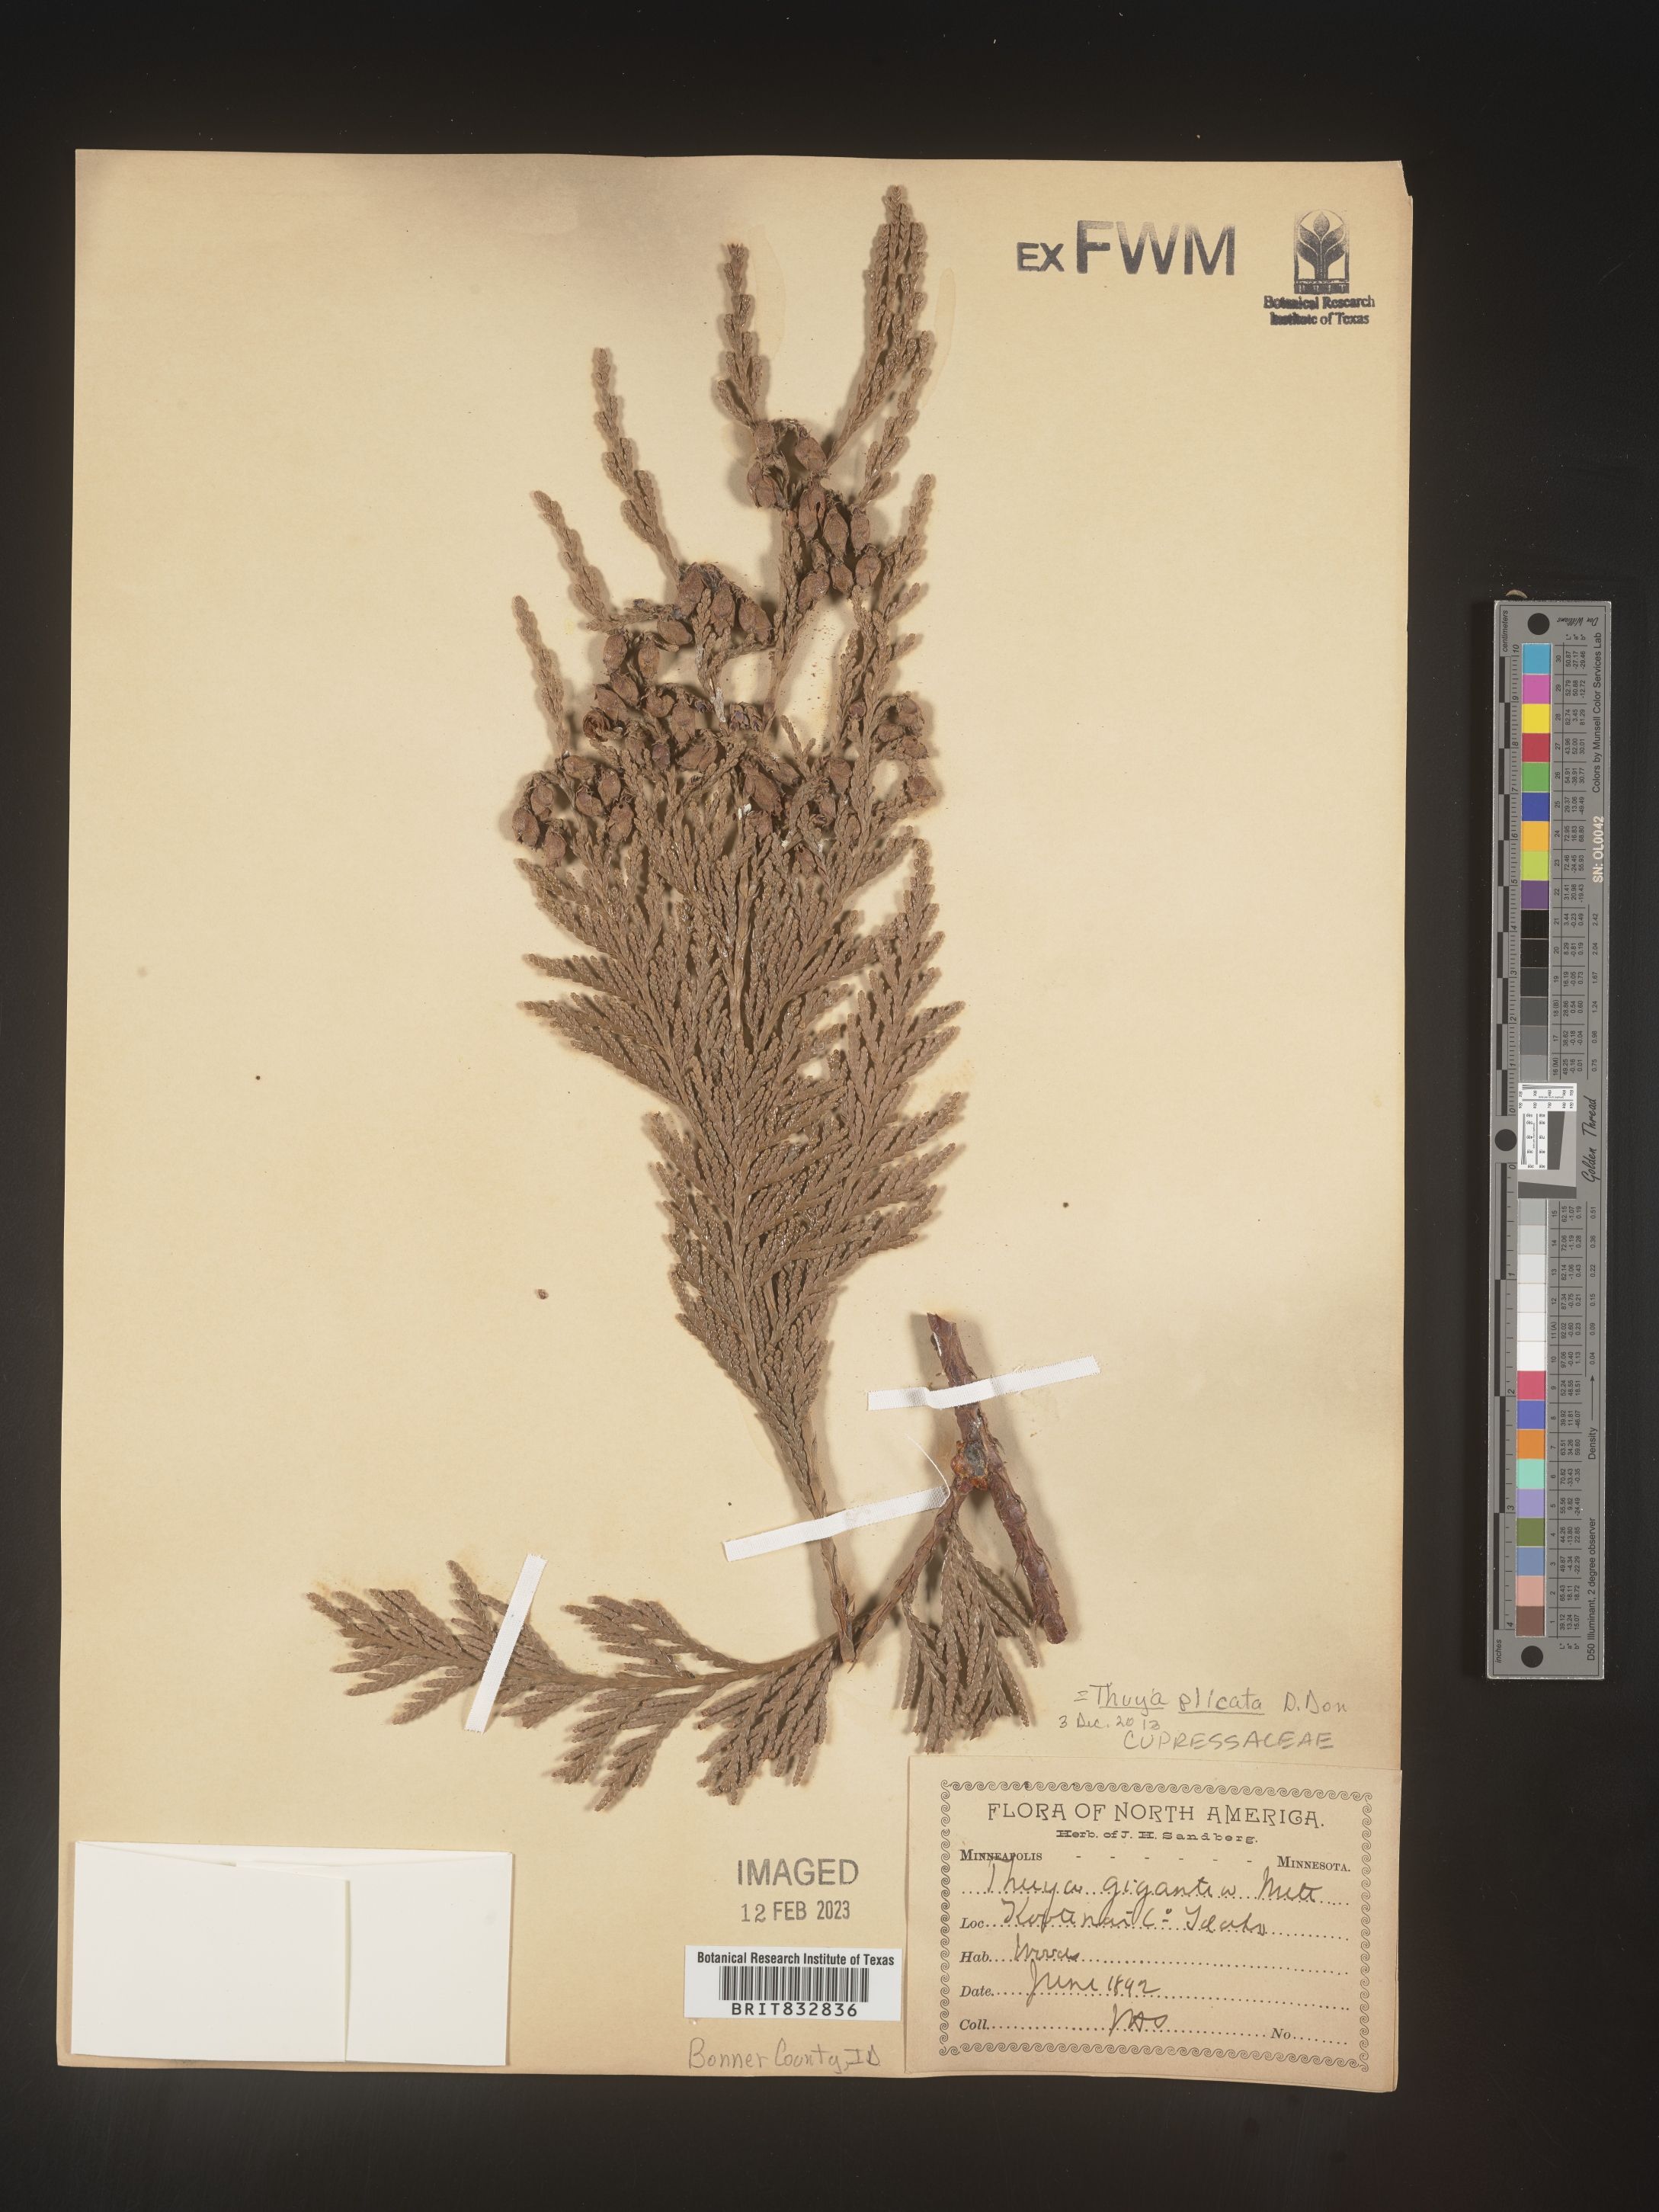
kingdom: Plantae
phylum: Tracheophyta
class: Pinopsida
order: Pinales
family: Cupressaceae
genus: Thuja
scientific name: Thuja plicata
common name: Western red-cedar
